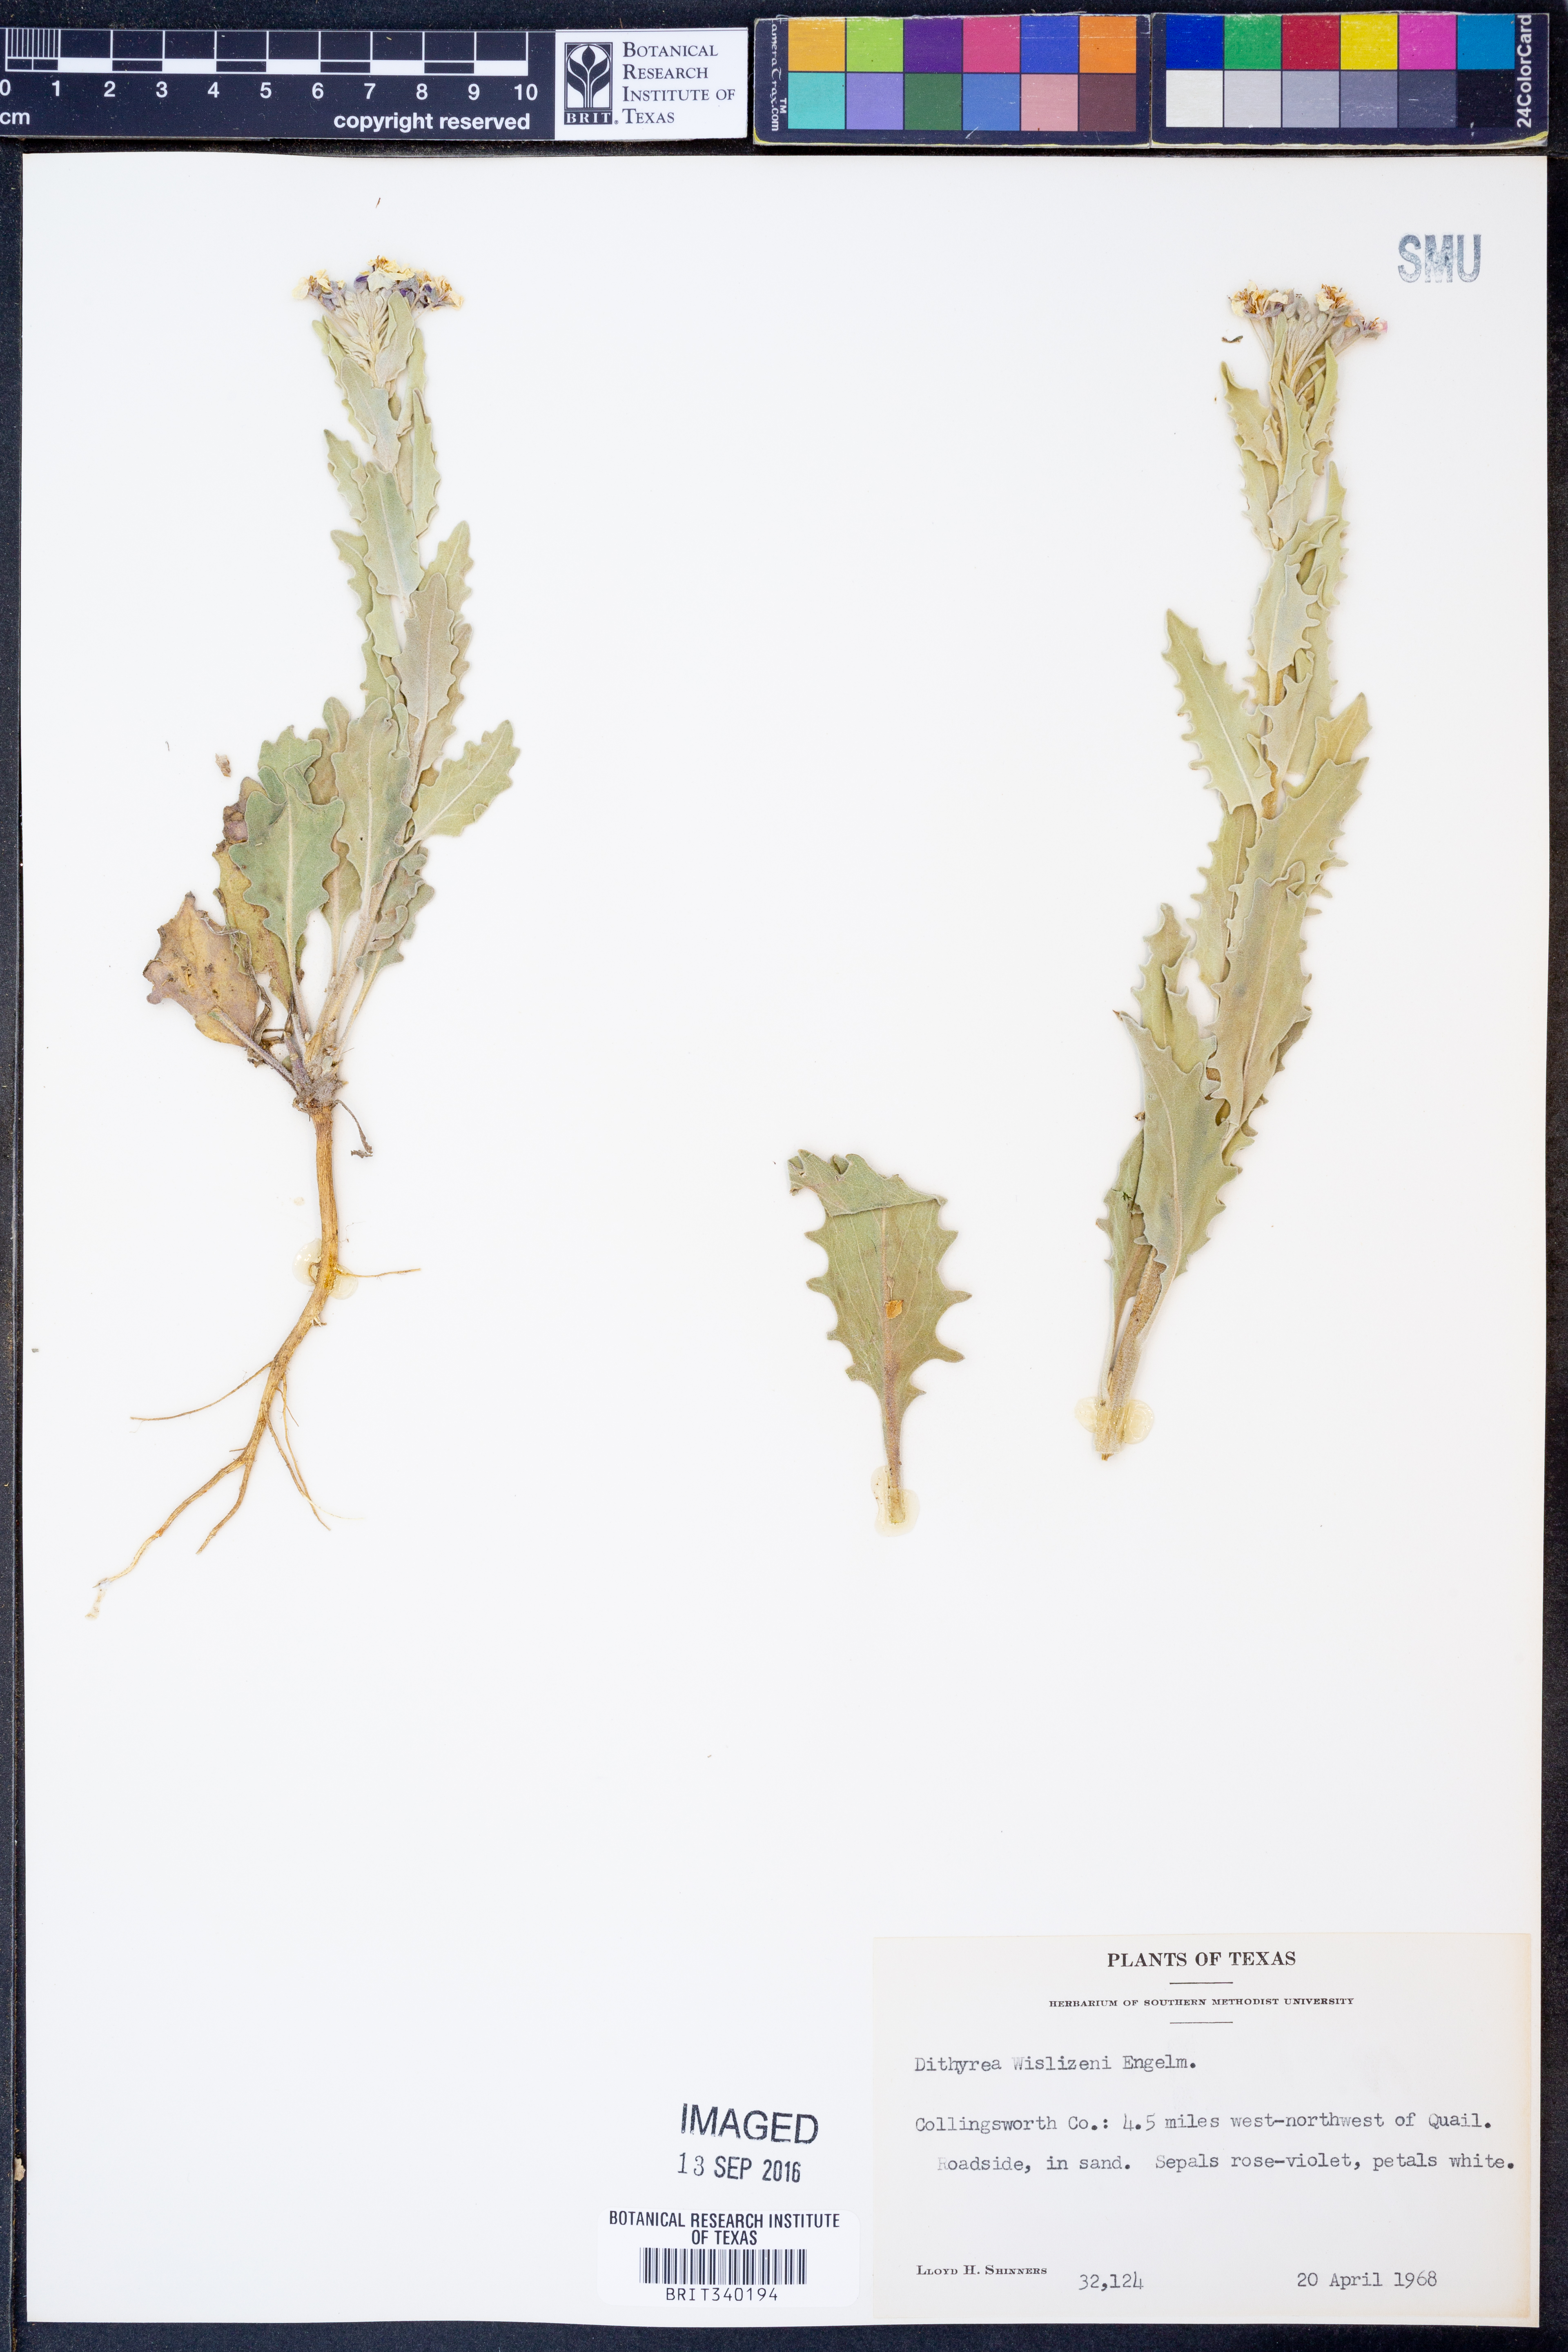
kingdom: Plantae
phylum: Tracheophyta
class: Magnoliopsida
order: Brassicales
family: Brassicaceae
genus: Dimorphocarpa
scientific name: Dimorphocarpa wislizenii
